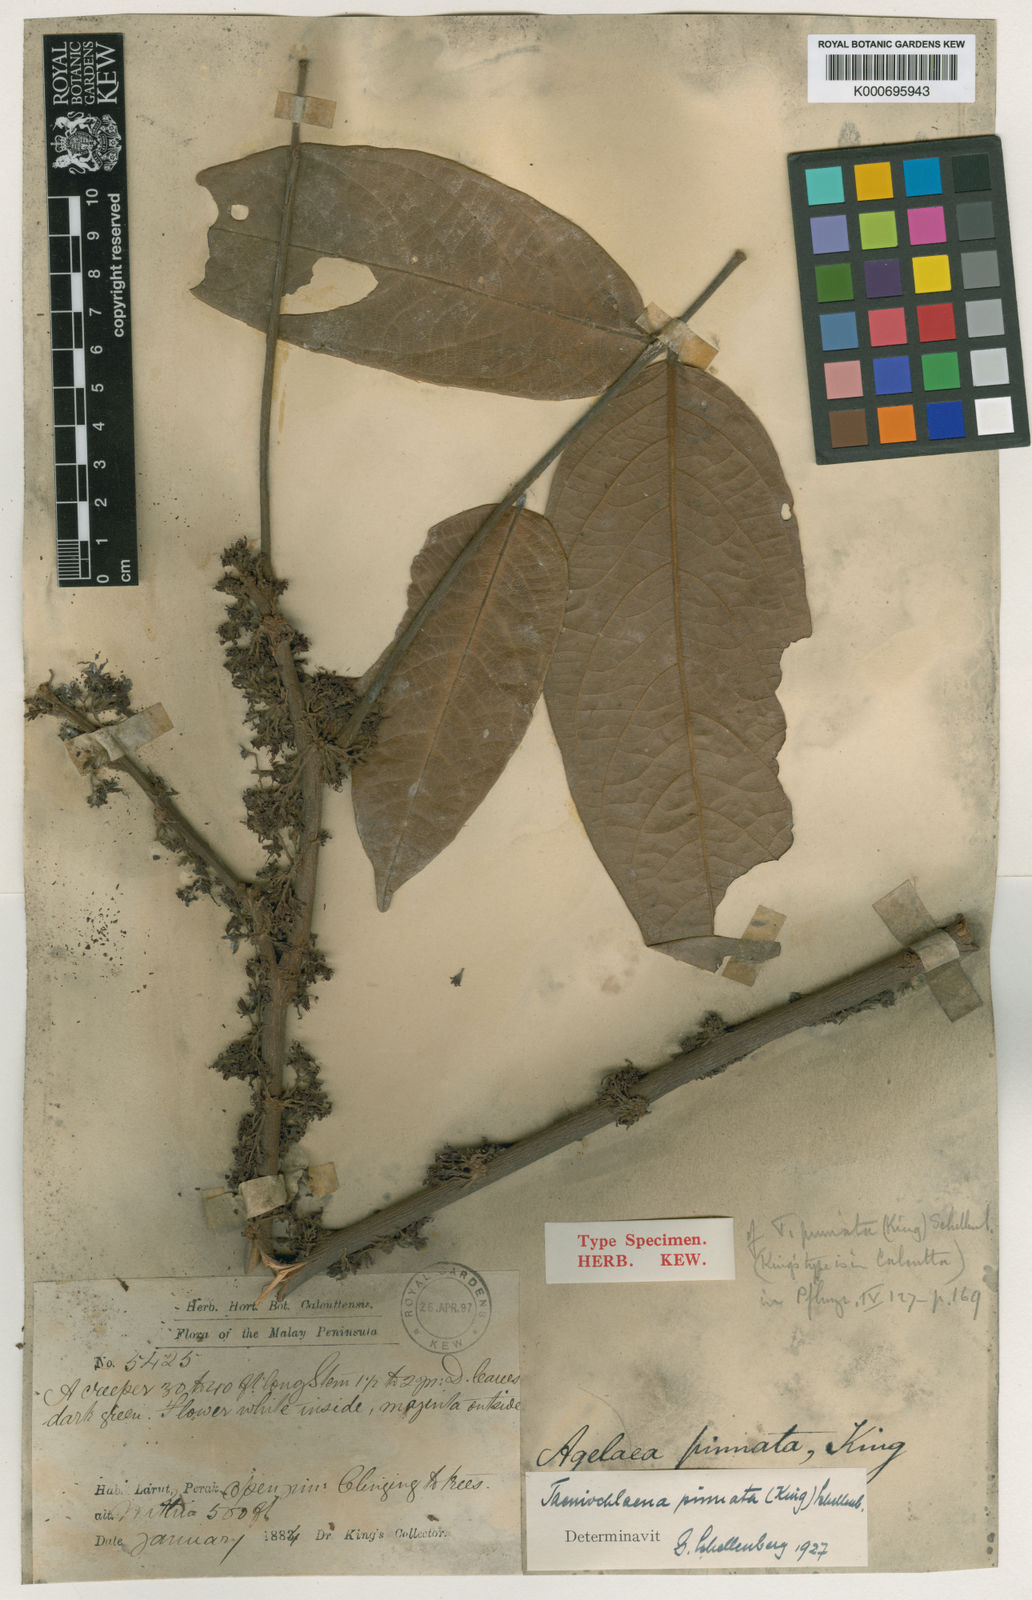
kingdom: Plantae
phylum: Tracheophyta
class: Magnoliopsida
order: Oxalidales
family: Connaraceae
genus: Rourea
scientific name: Rourea dictyophylla
